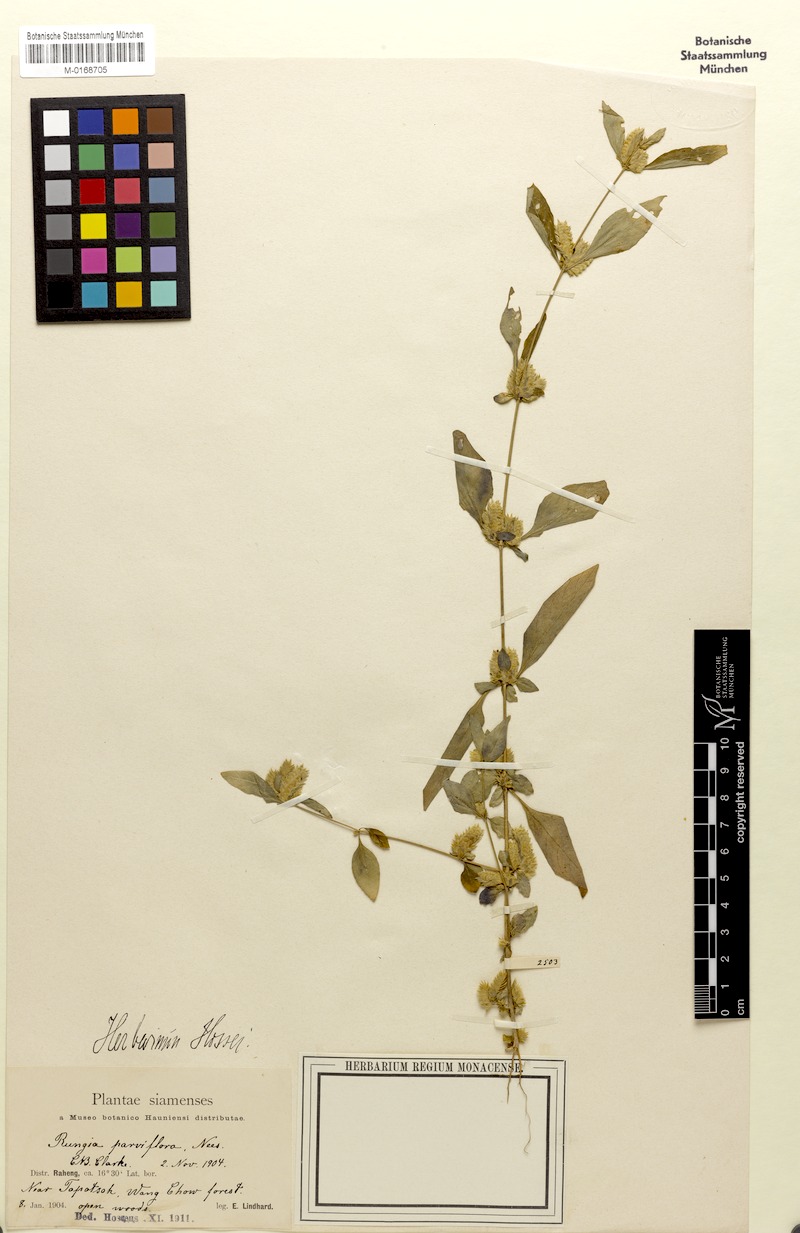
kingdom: Plantae
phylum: Tracheophyta
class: Magnoliopsida
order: Lamiales
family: Acanthaceae
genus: Rungia
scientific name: Rungia parviflora
